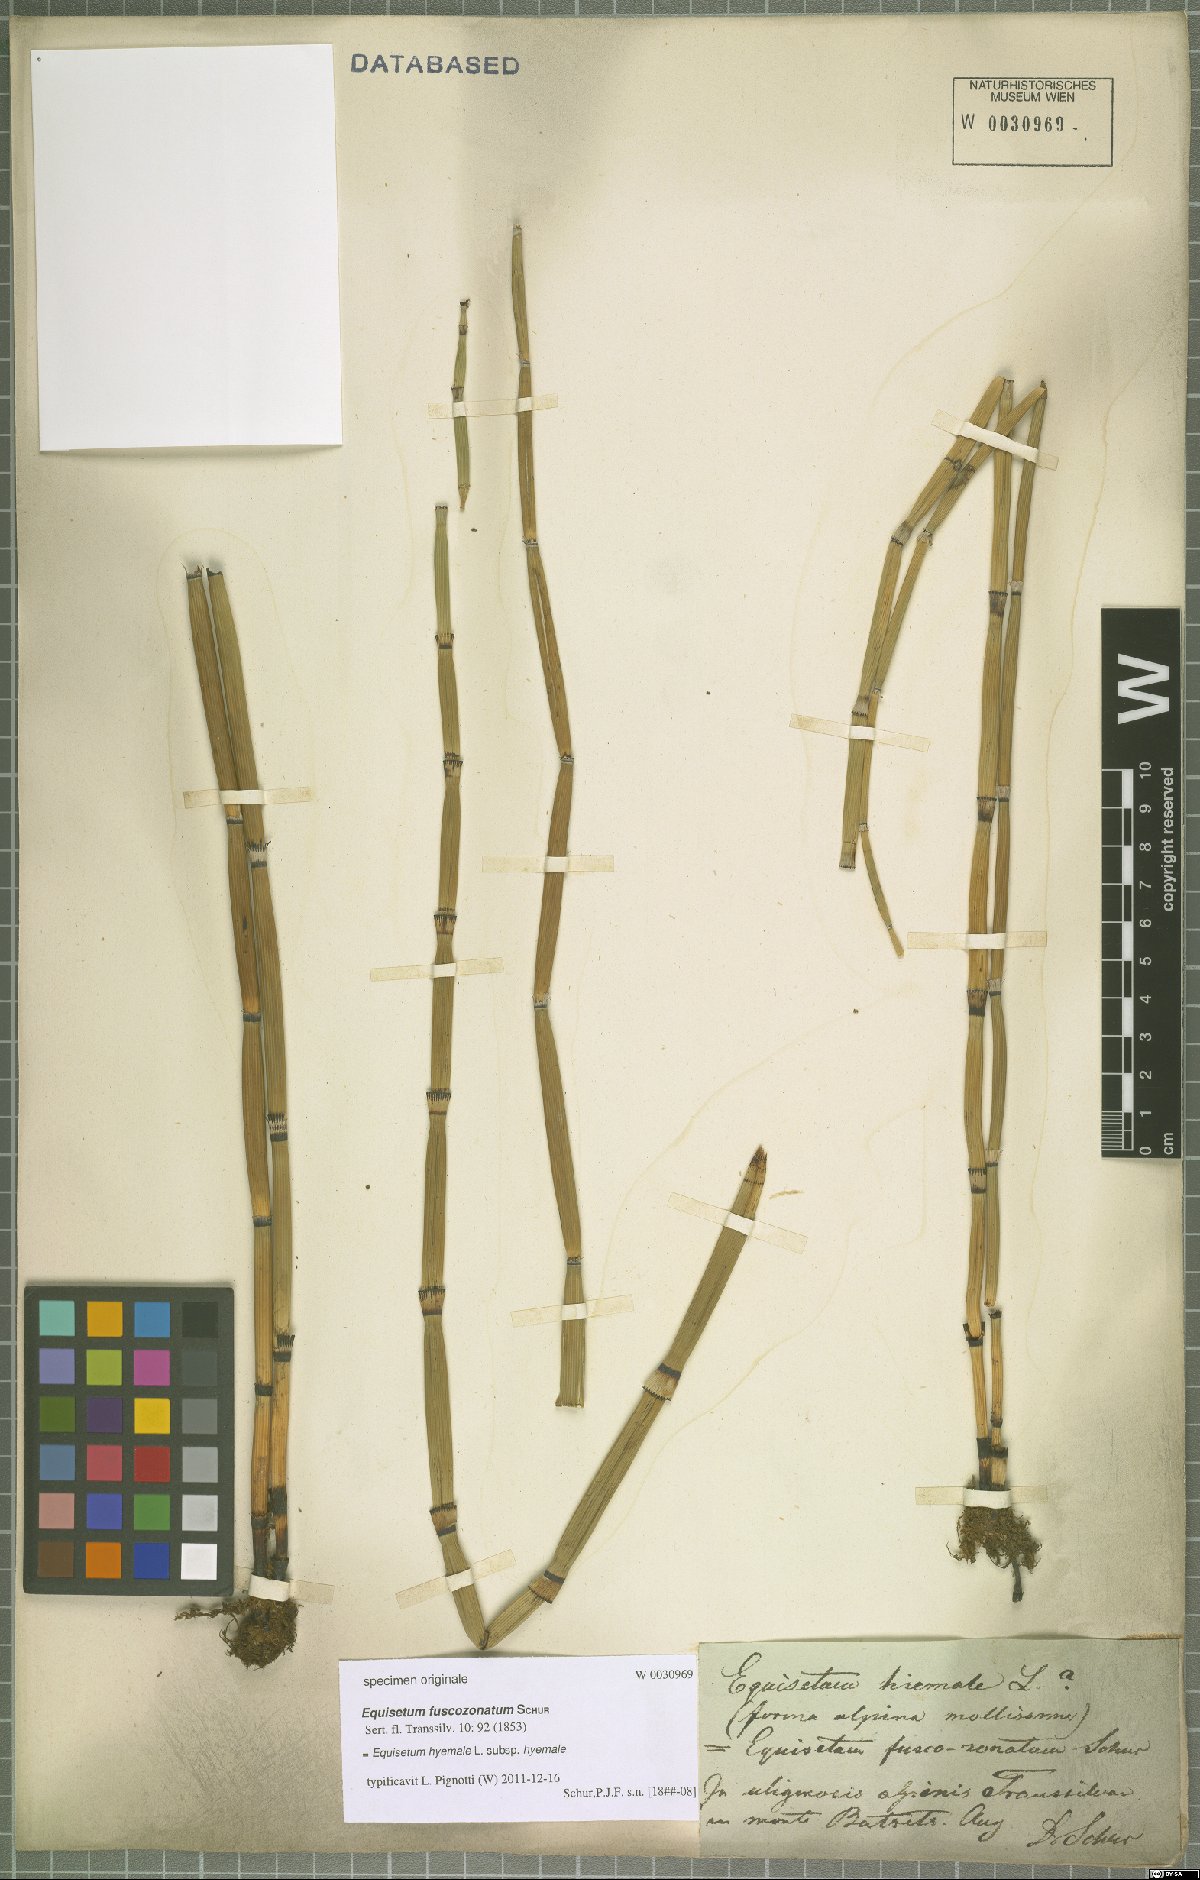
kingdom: Plantae
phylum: Tracheophyta
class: Polypodiopsida
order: Equisetales
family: Equisetaceae
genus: Equisetum
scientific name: Equisetum hyemale
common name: Rough horsetail
